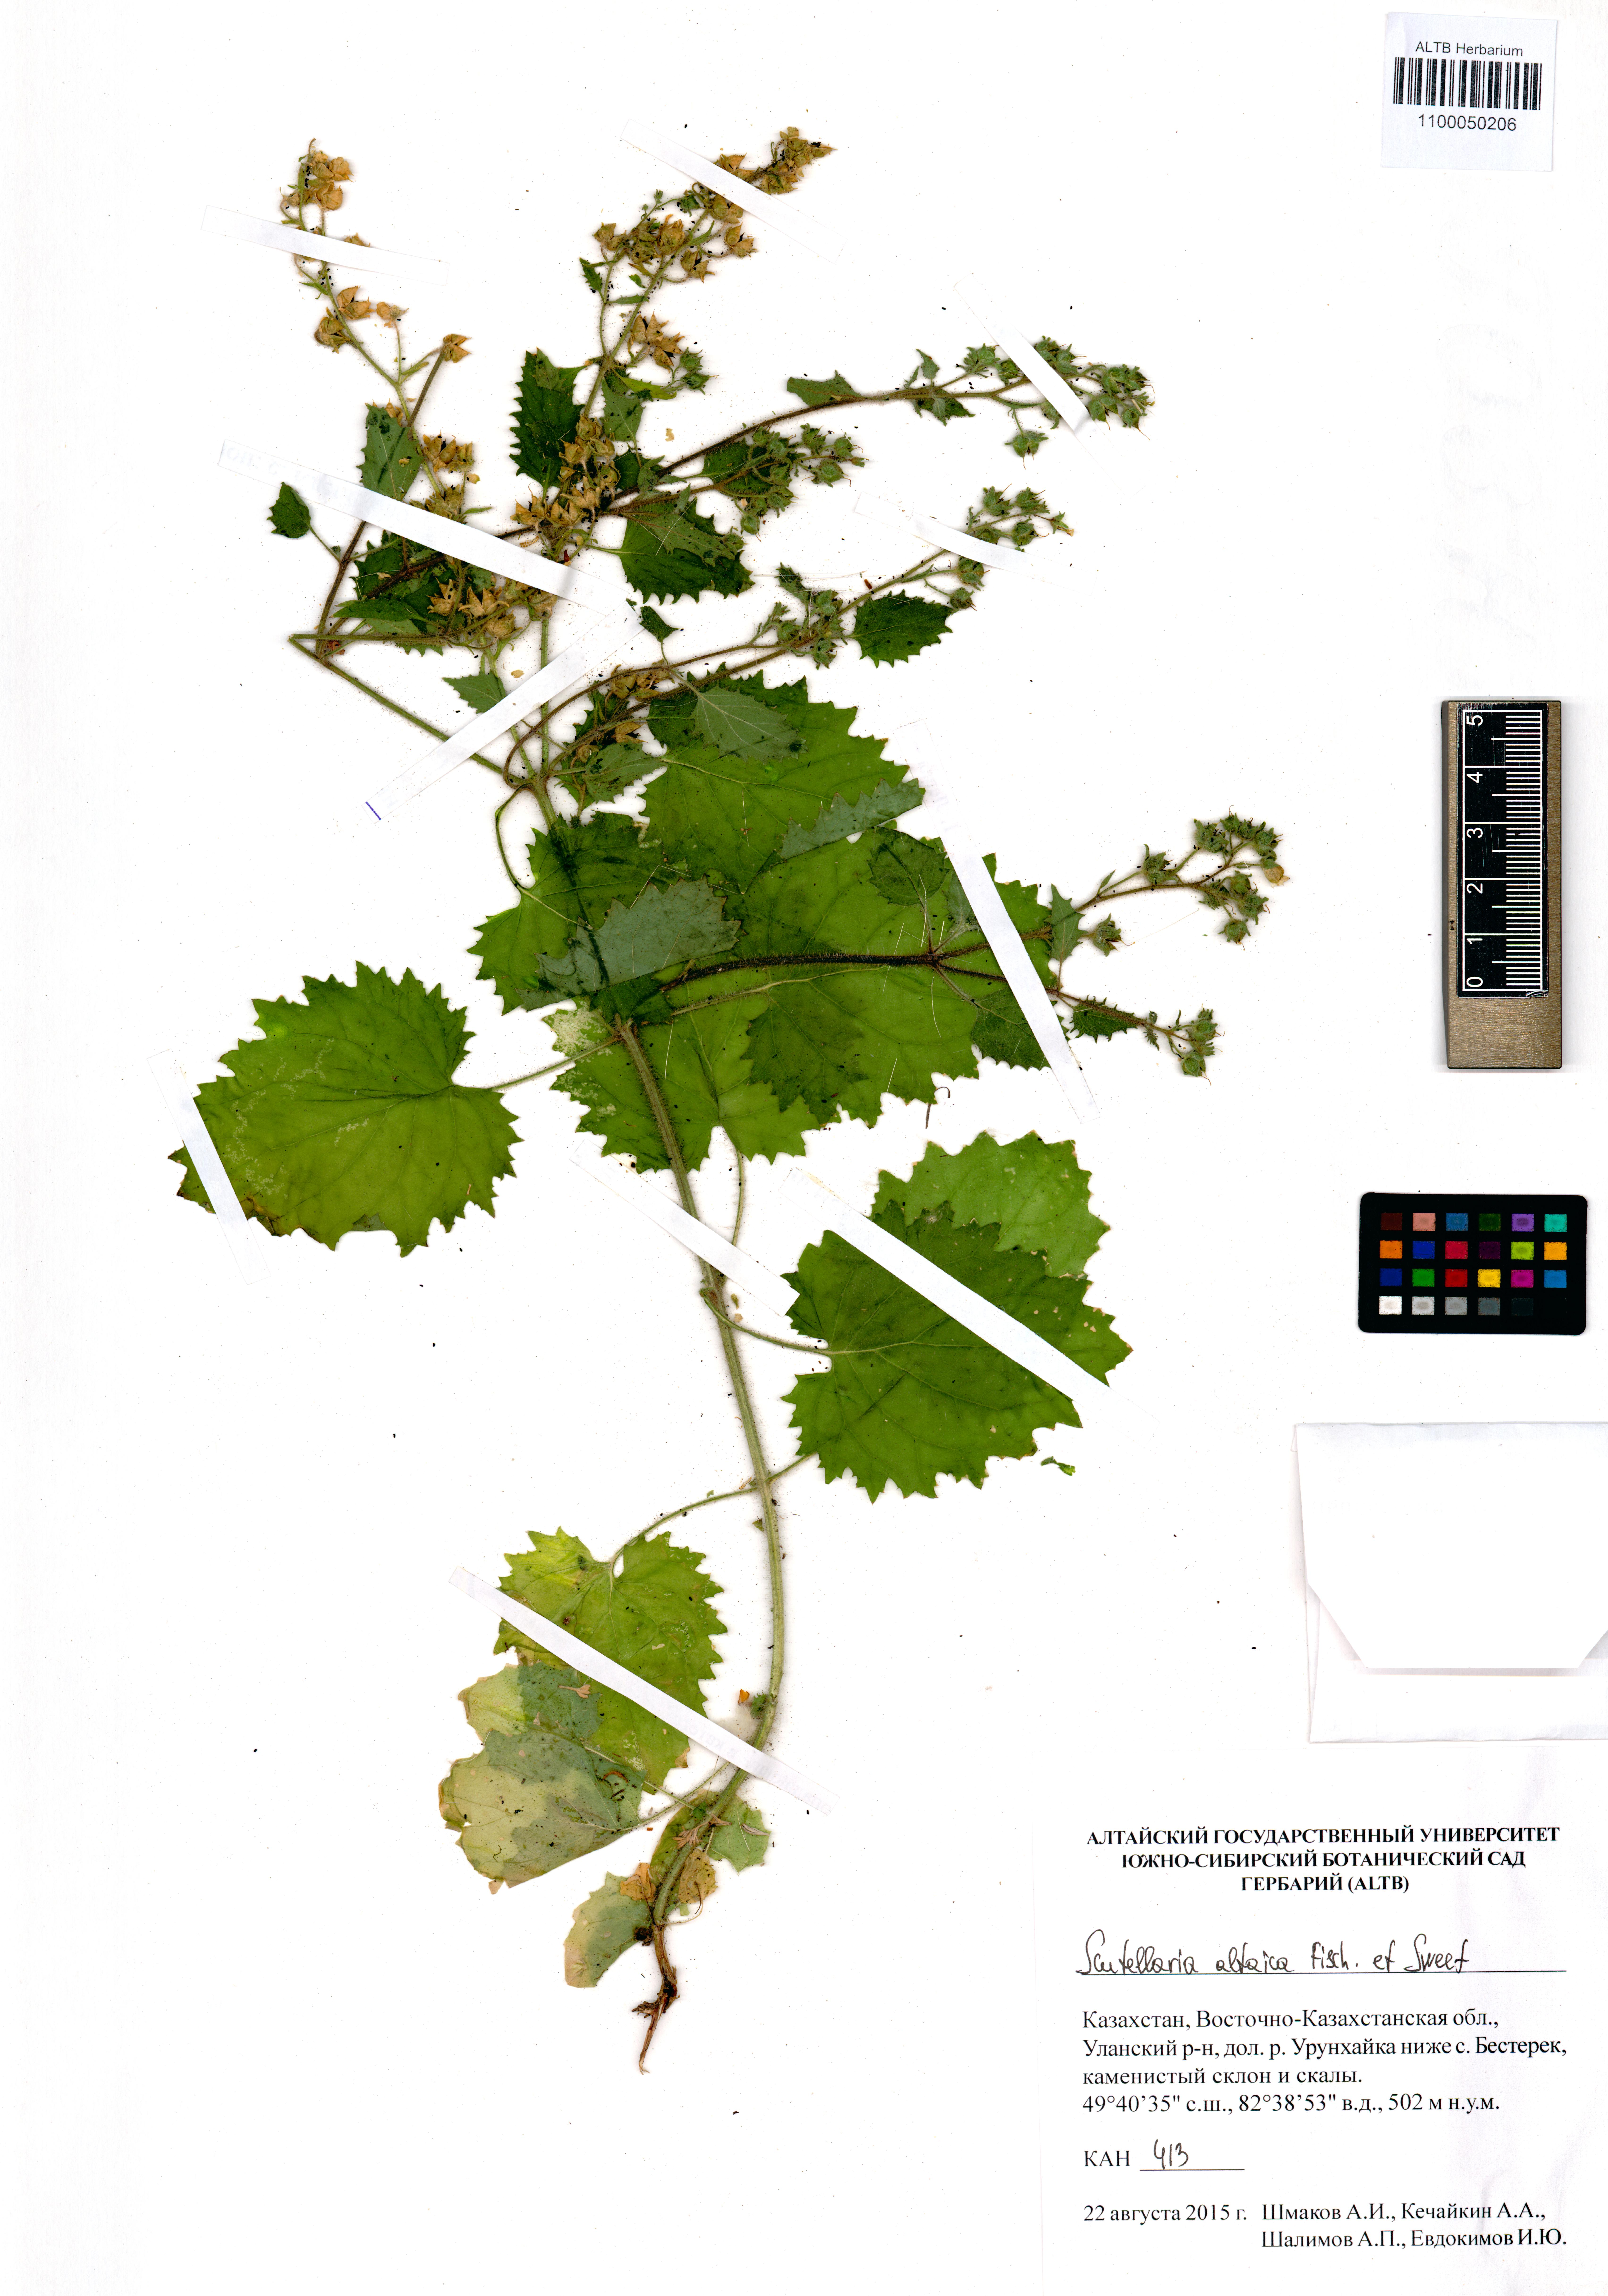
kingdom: Plantae
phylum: Tracheophyta
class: Magnoliopsida
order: Lamiales
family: Lamiaceae
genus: Scutellaria
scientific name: Scutellaria altaica
